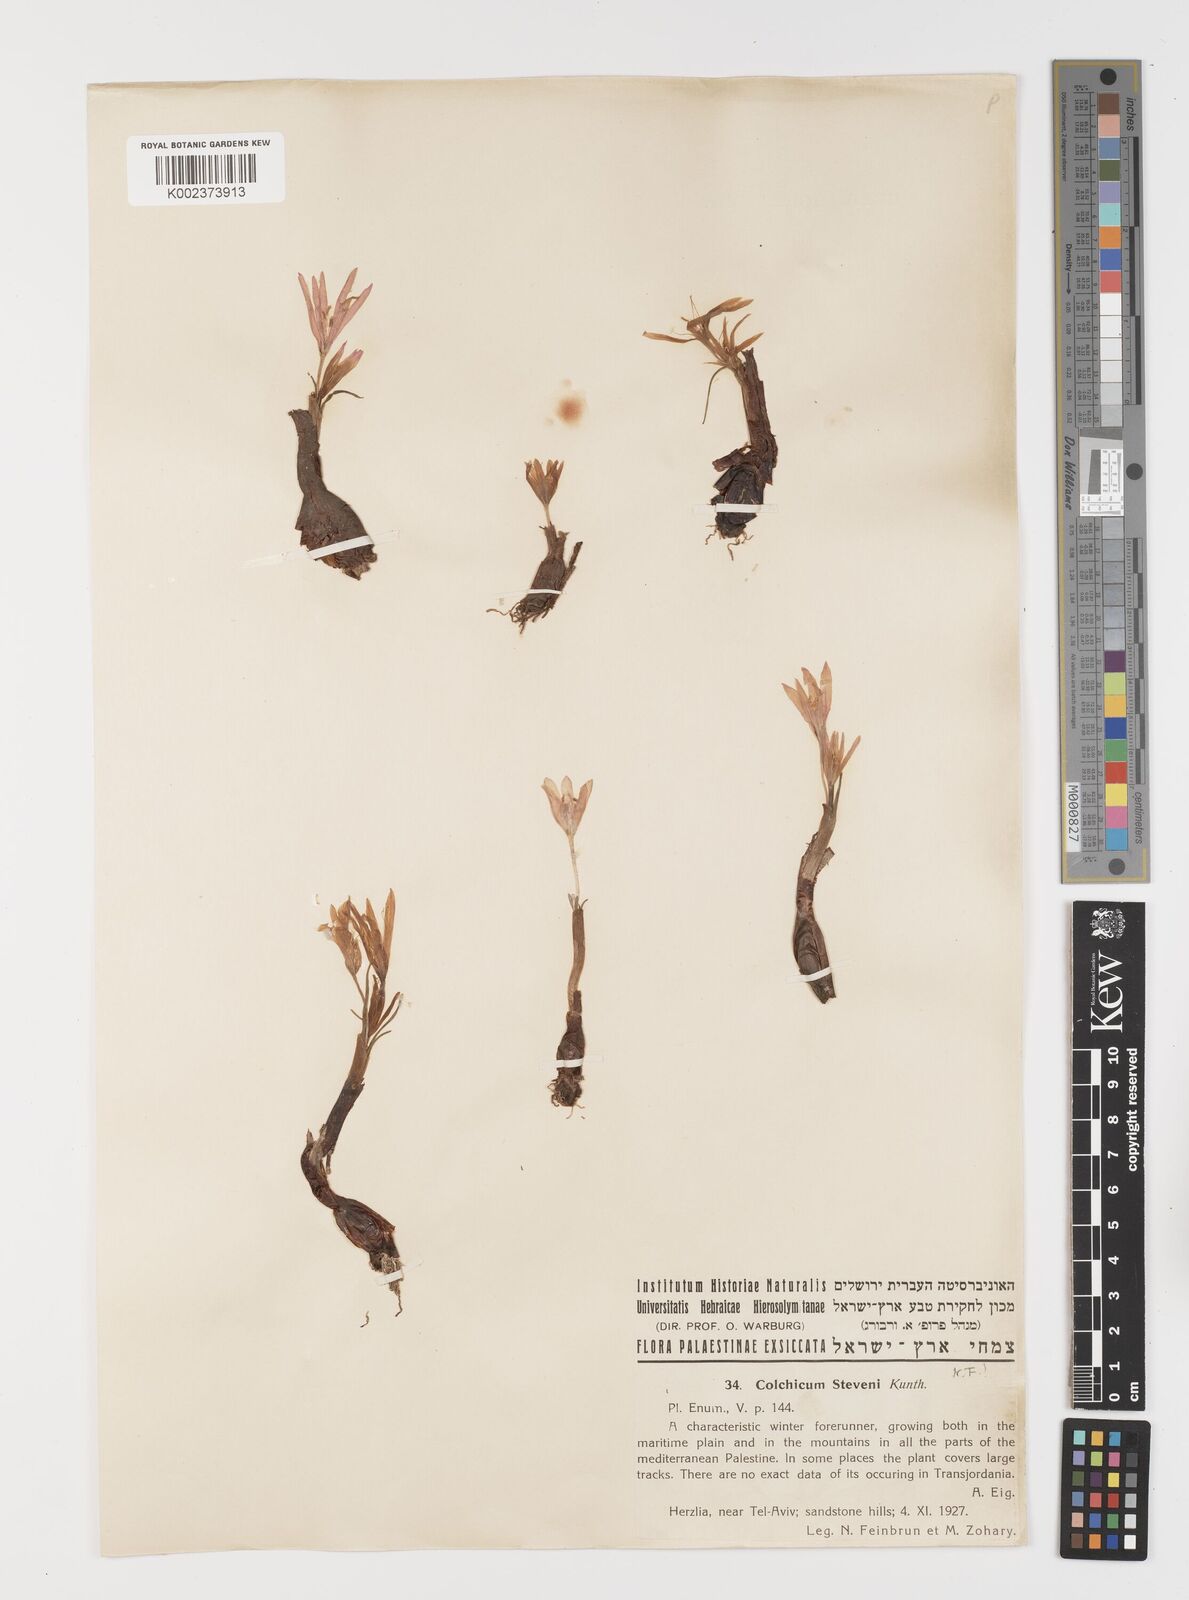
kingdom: Plantae
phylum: Tracheophyta
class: Liliopsida
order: Liliales
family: Colchicaceae
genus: Colchicum
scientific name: Colchicum stevenii
